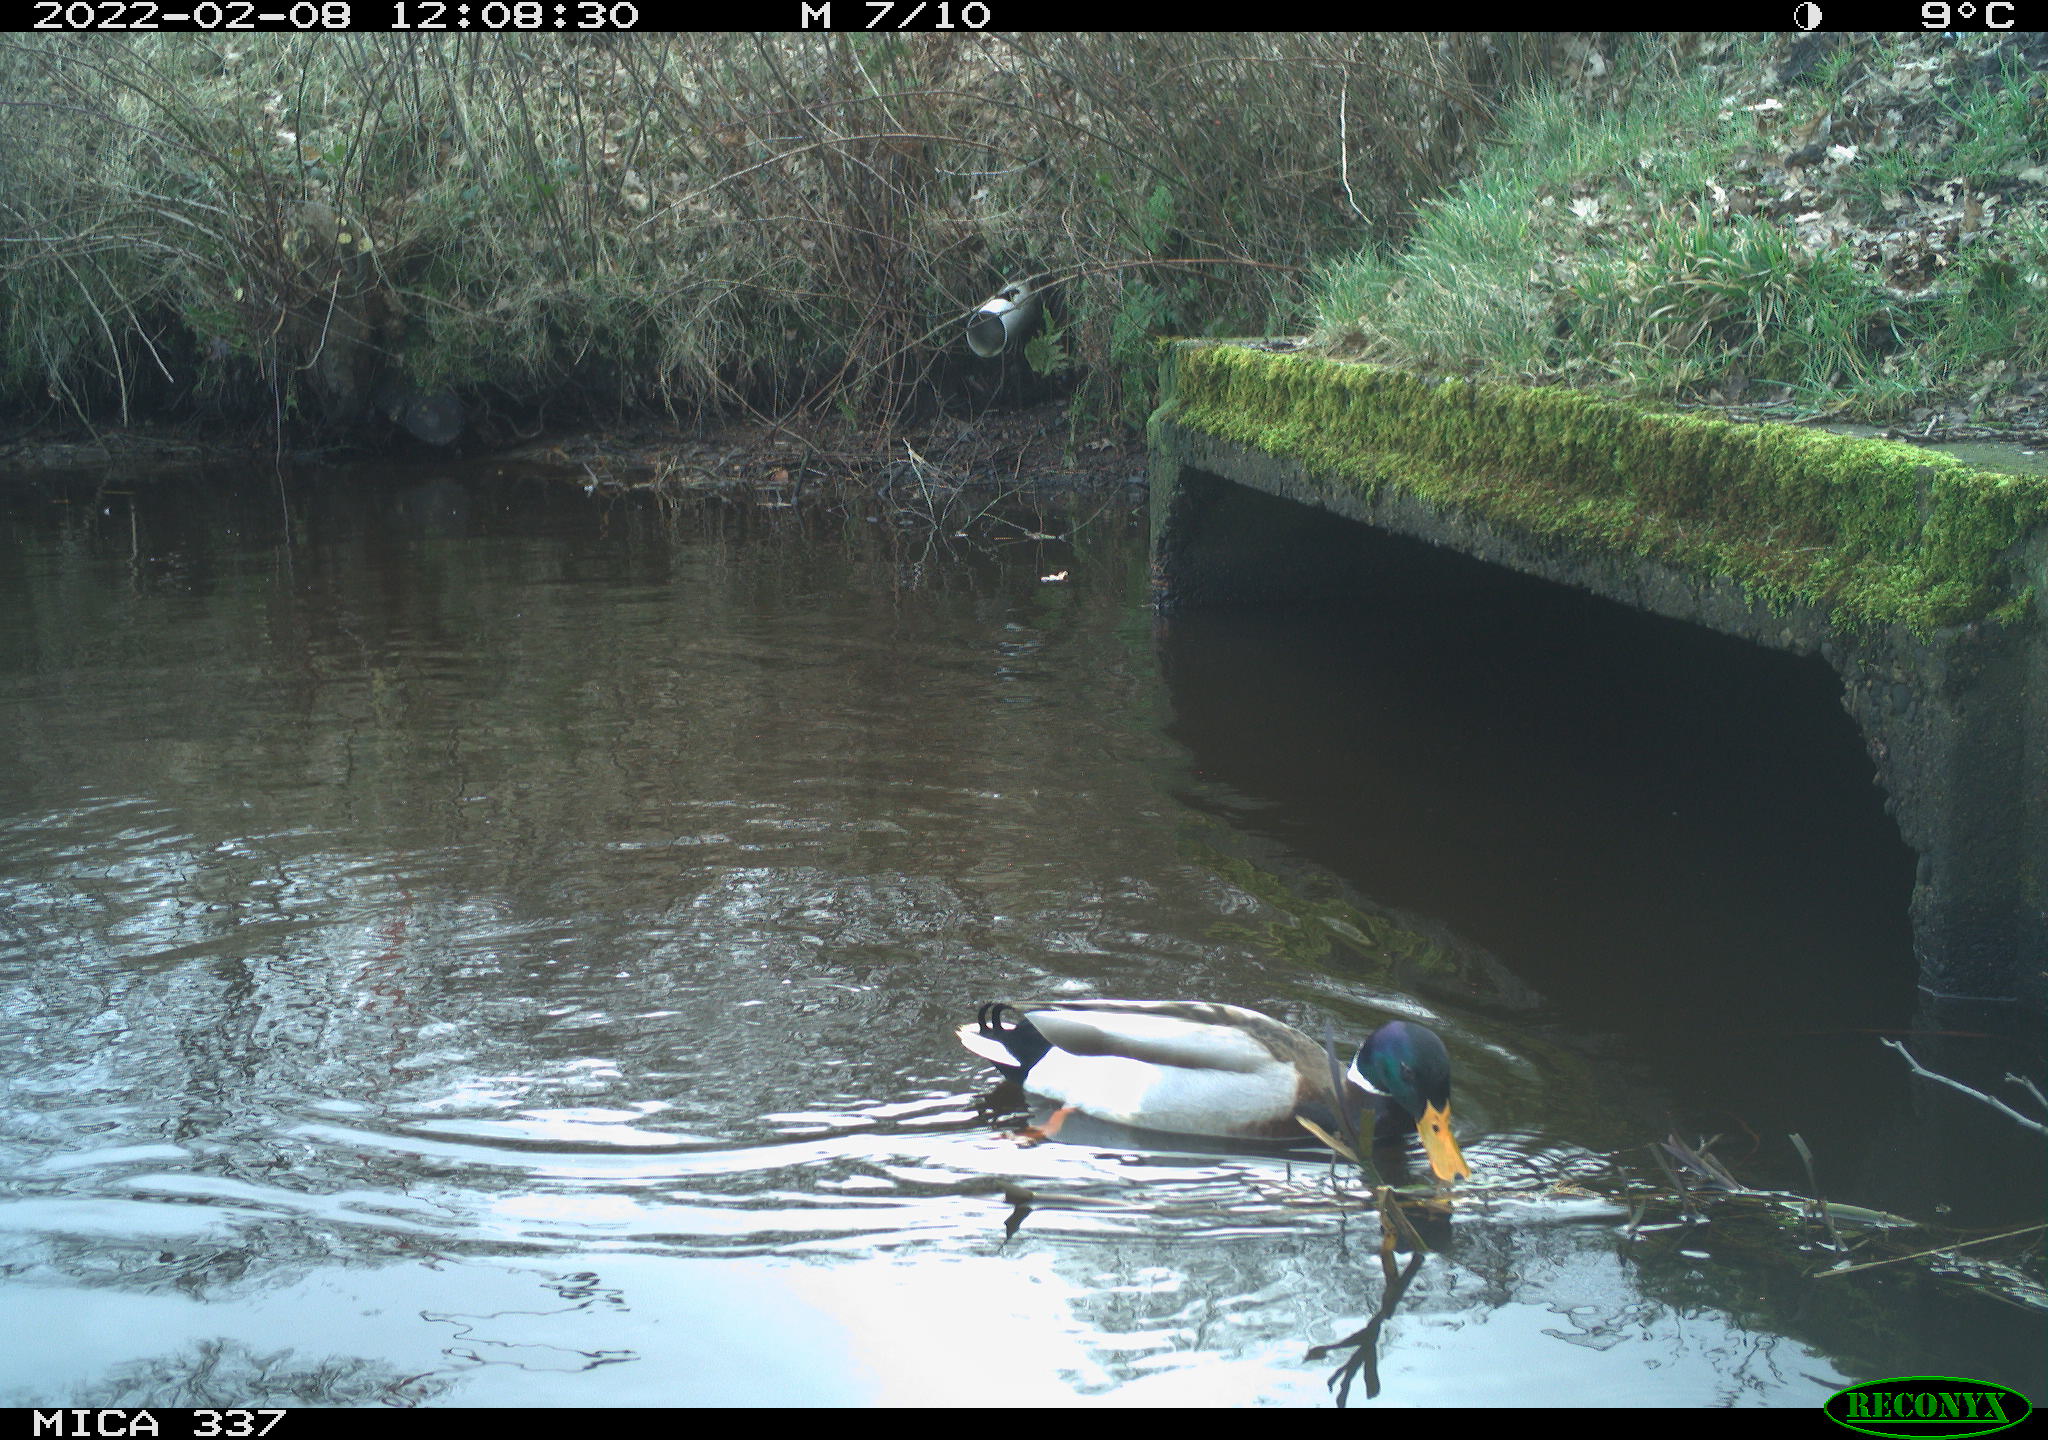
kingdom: Animalia
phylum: Chordata
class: Aves
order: Anseriformes
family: Anatidae
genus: Anas
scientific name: Anas platyrhynchos
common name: Mallard
